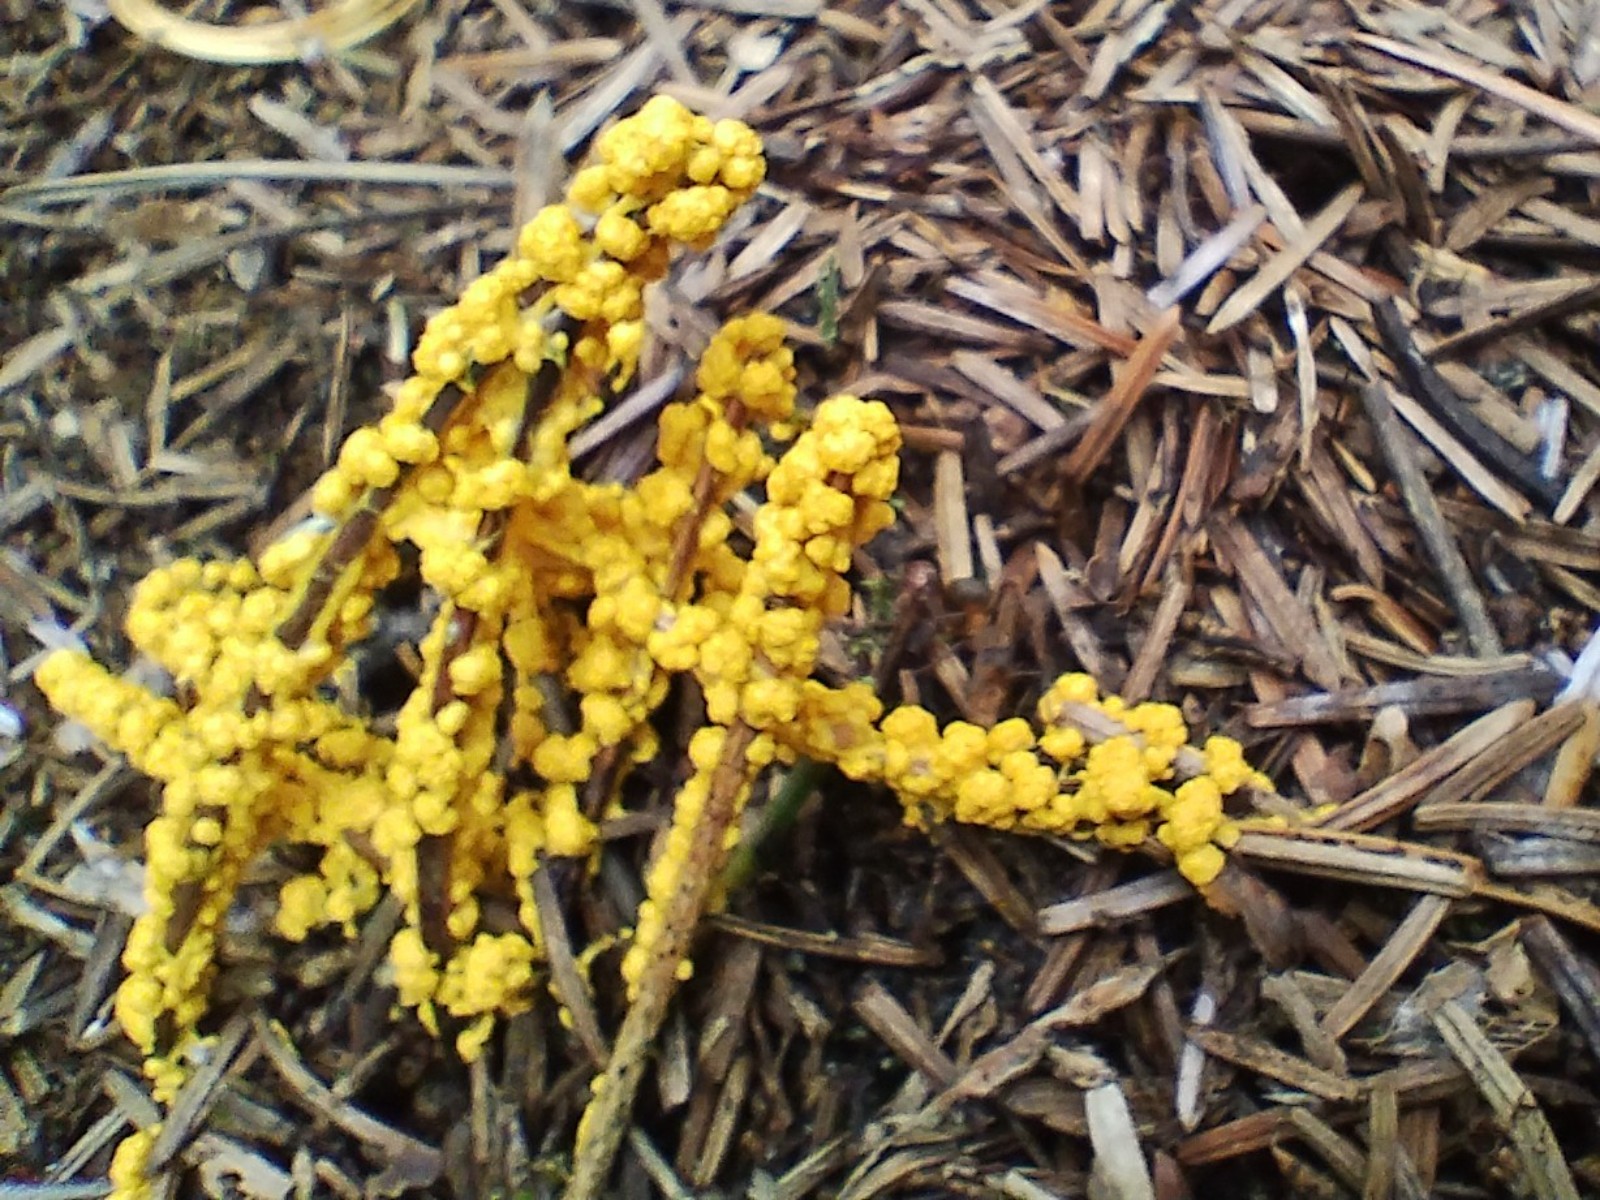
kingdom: Protozoa
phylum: Mycetozoa
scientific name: Mycetozoa
